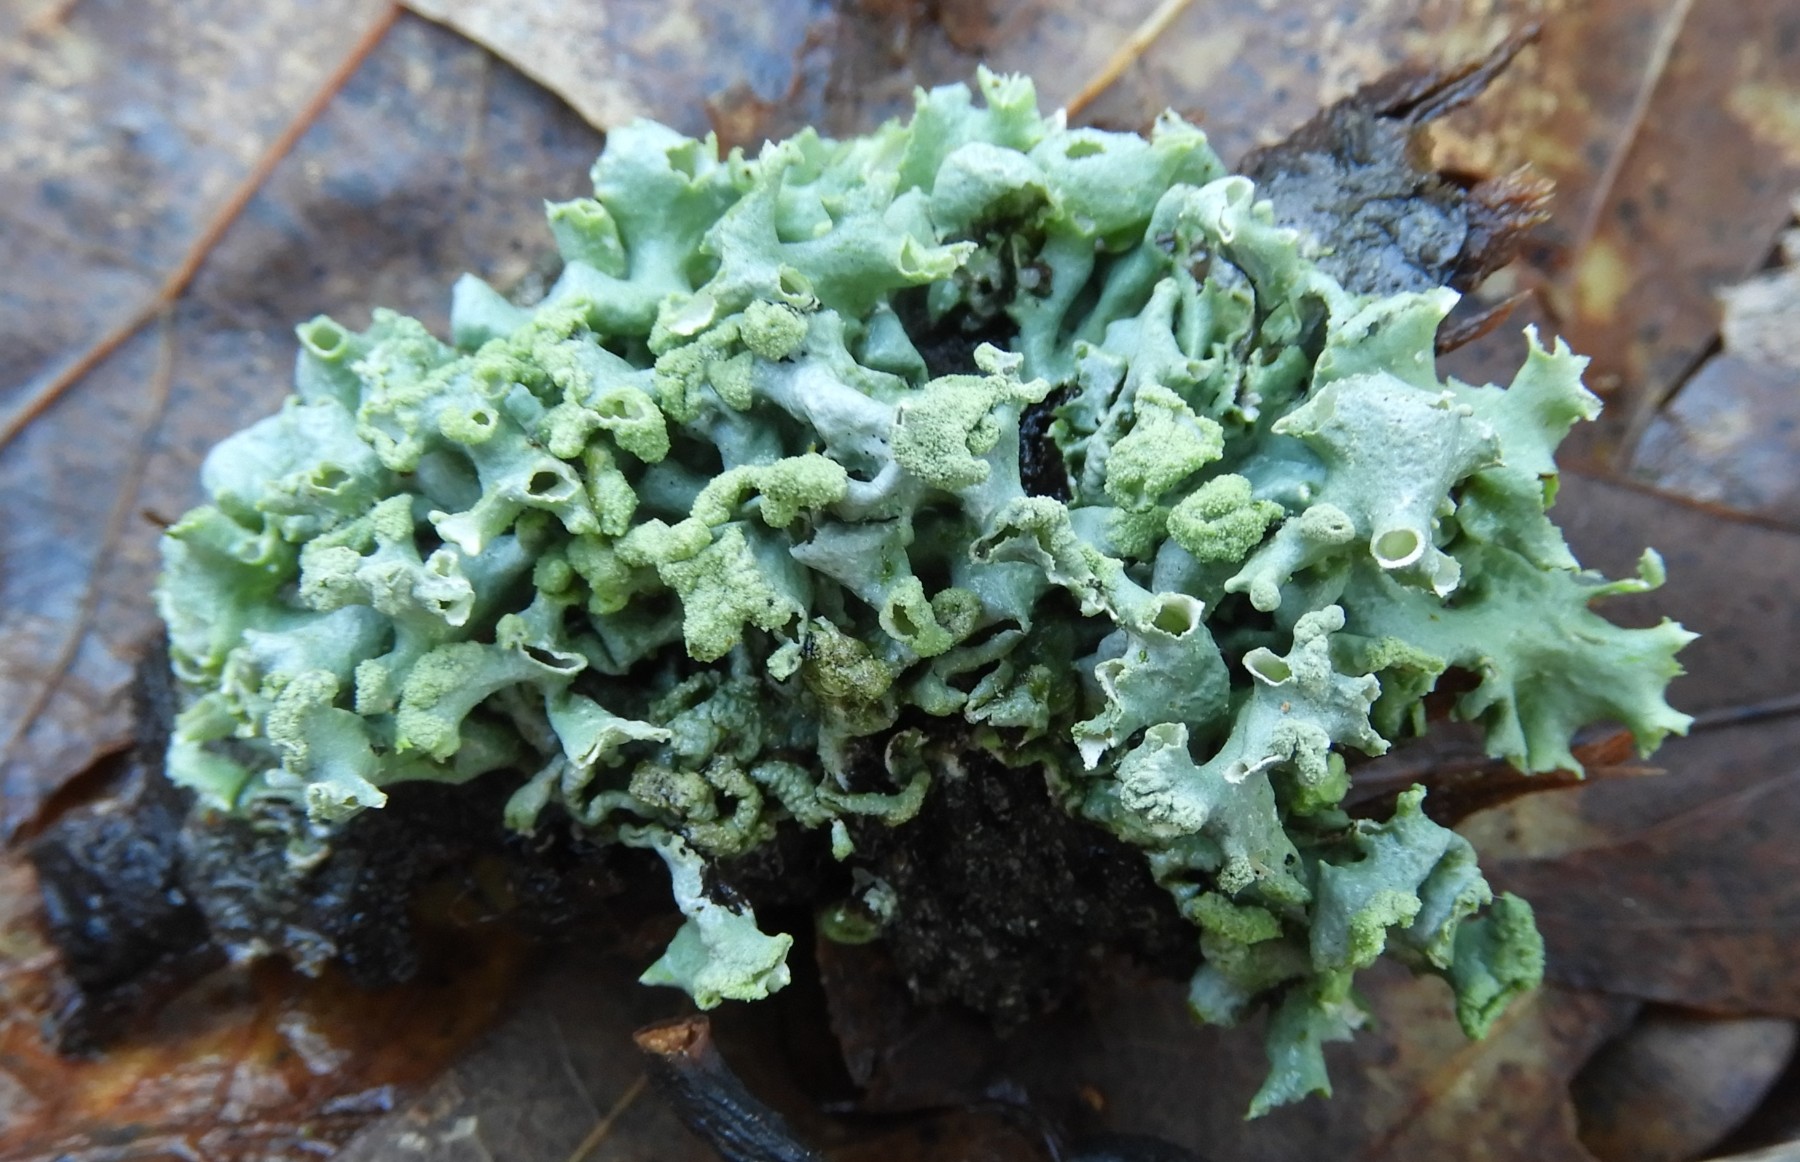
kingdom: Fungi
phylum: Ascomycota
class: Lecanoromycetes
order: Lecanorales
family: Parmeliaceae
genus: Hypogymnia
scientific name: Hypogymnia tubulosa
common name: finger-kvistlav
